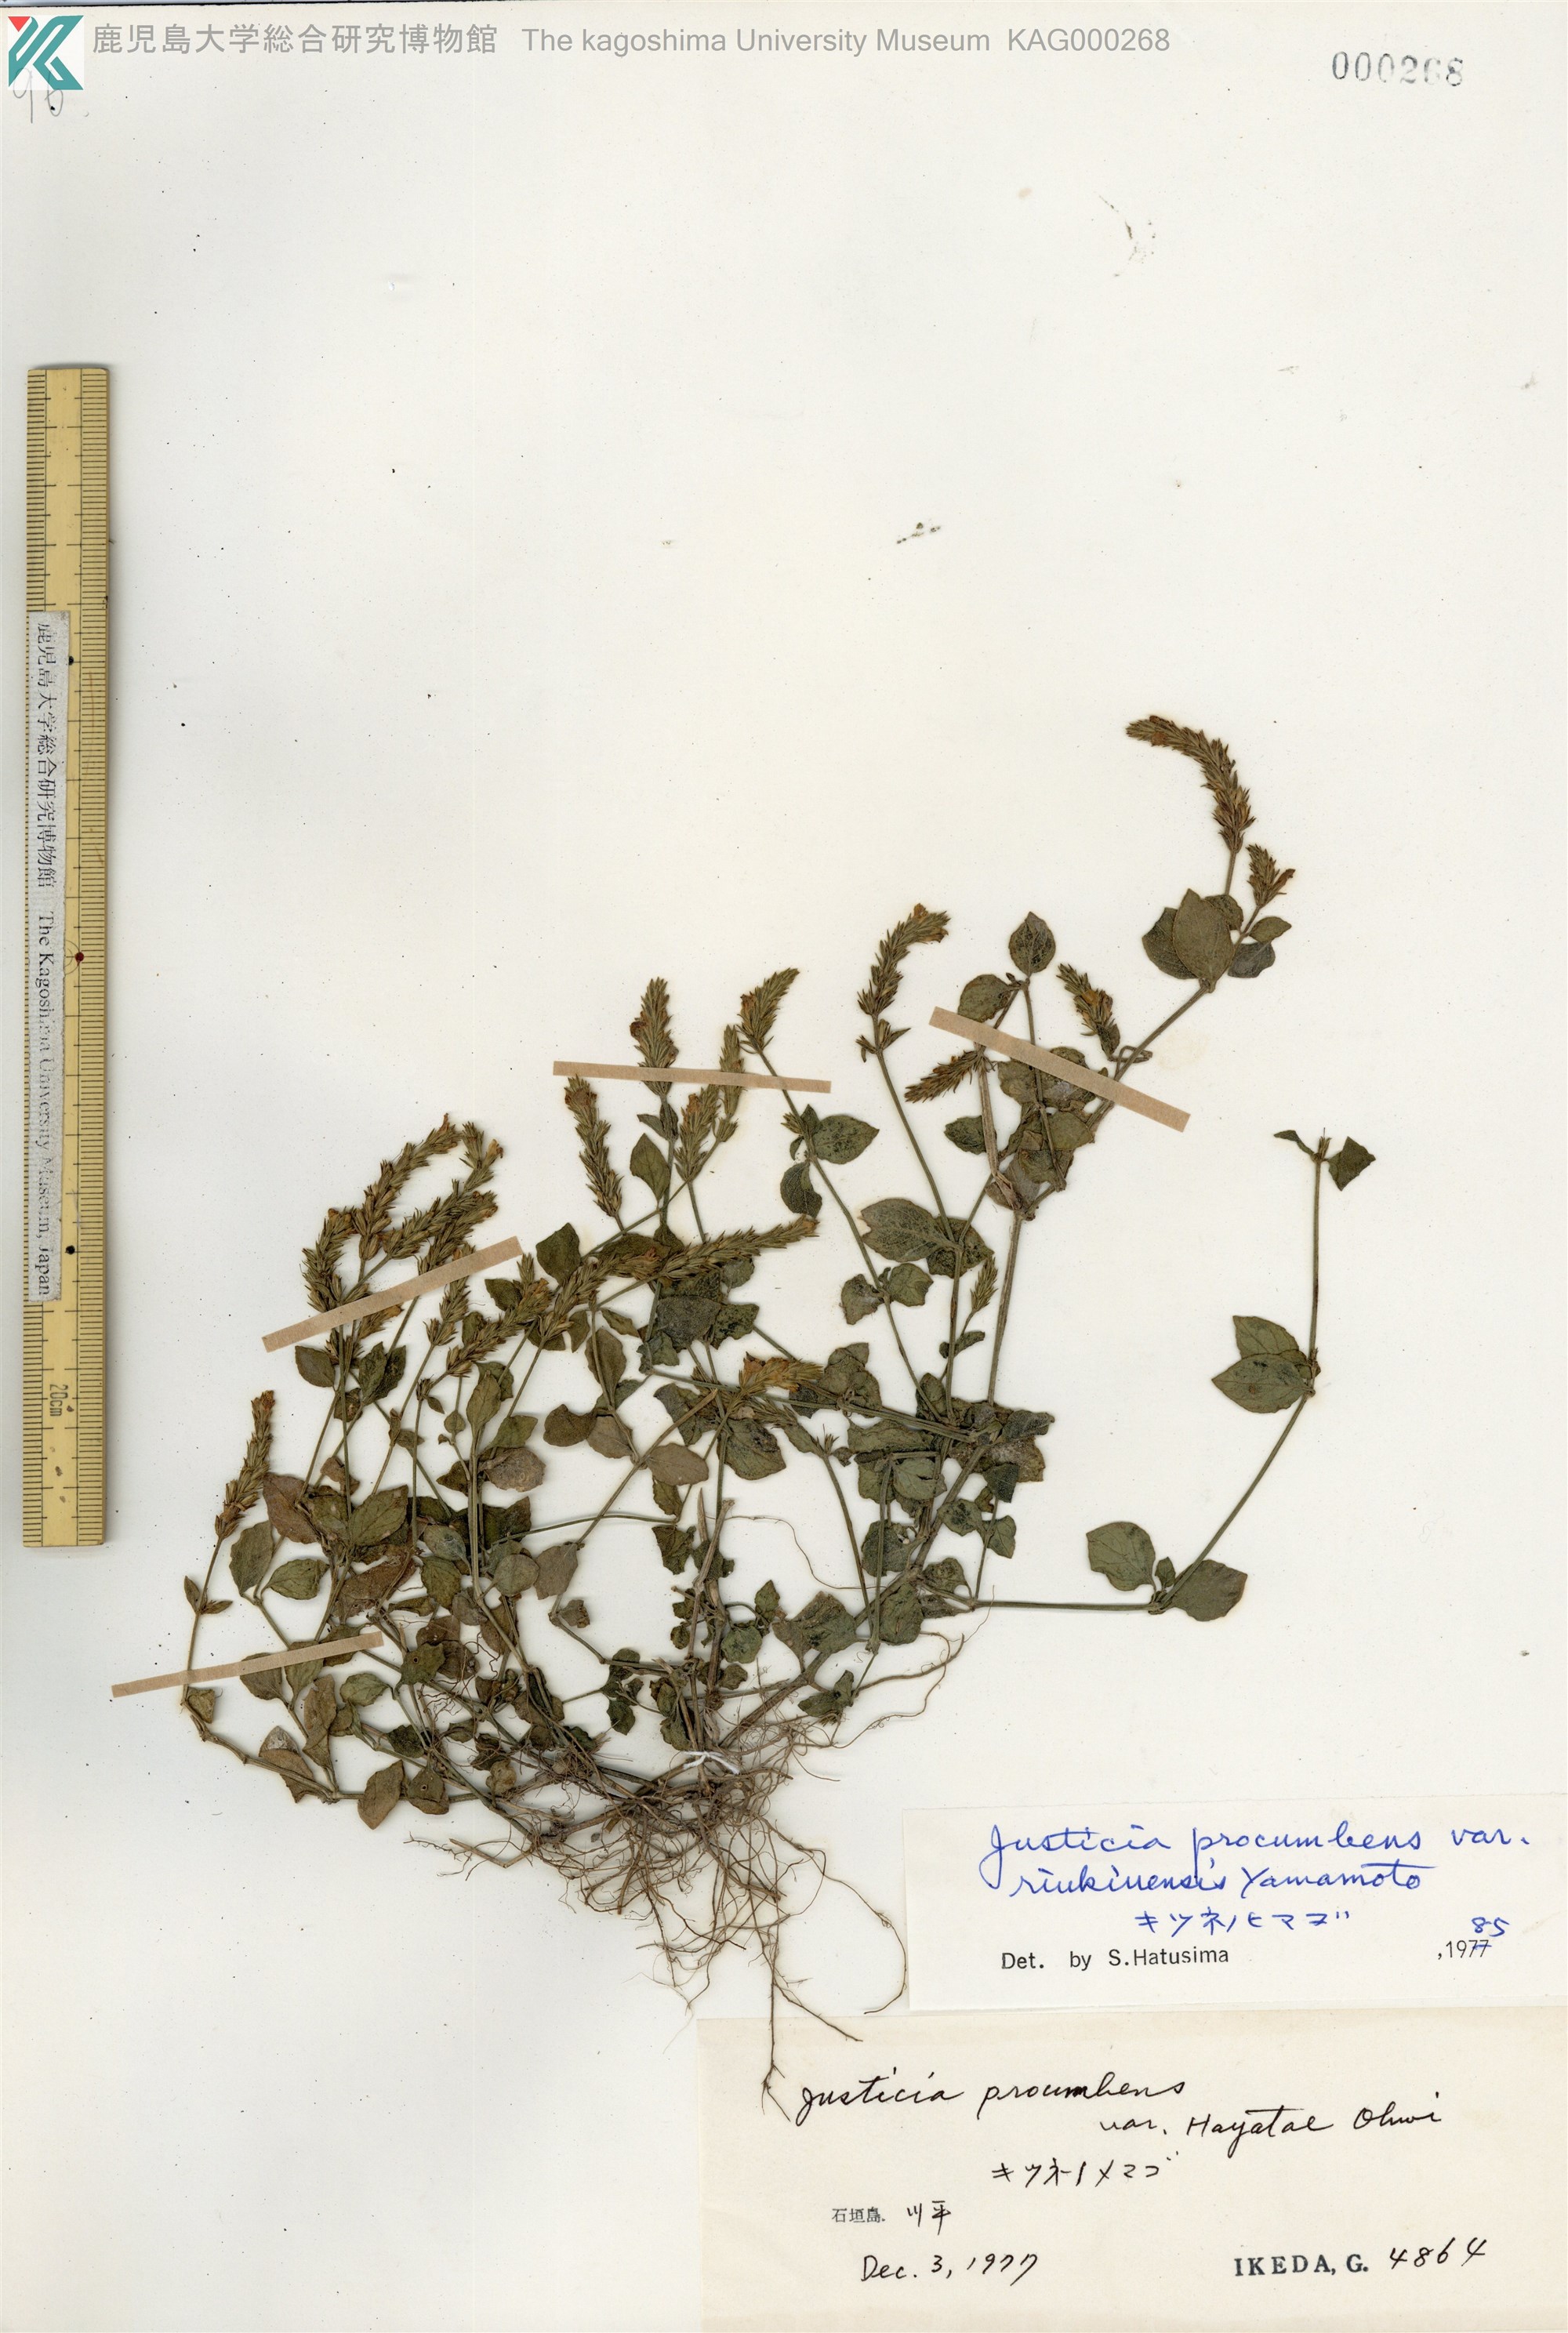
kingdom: Plantae
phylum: Tracheophyta
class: Magnoliopsida
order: Lamiales
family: Acanthaceae
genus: Rostellularia
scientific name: Rostellularia procumbens
